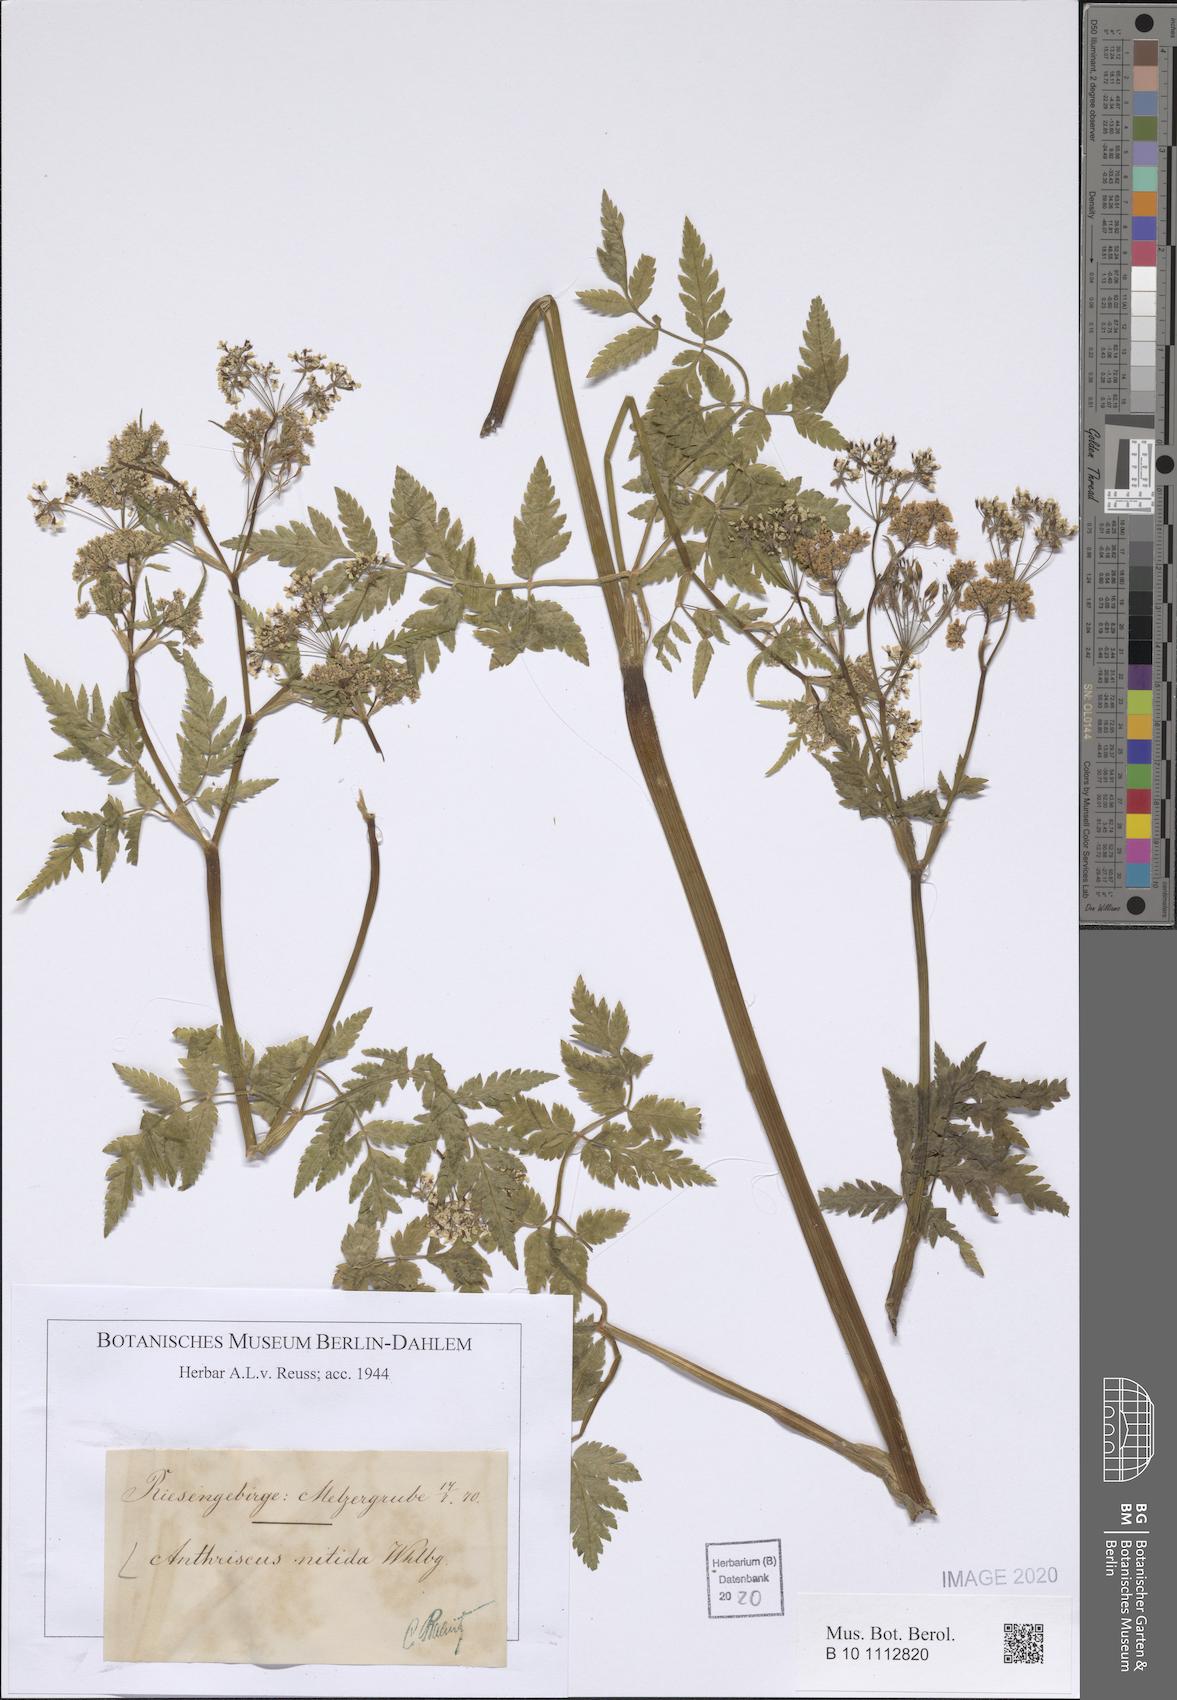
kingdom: Plantae
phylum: Tracheophyta
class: Magnoliopsida
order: Apiales
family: Apiaceae
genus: Anthriscus
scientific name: Anthriscus nitida
